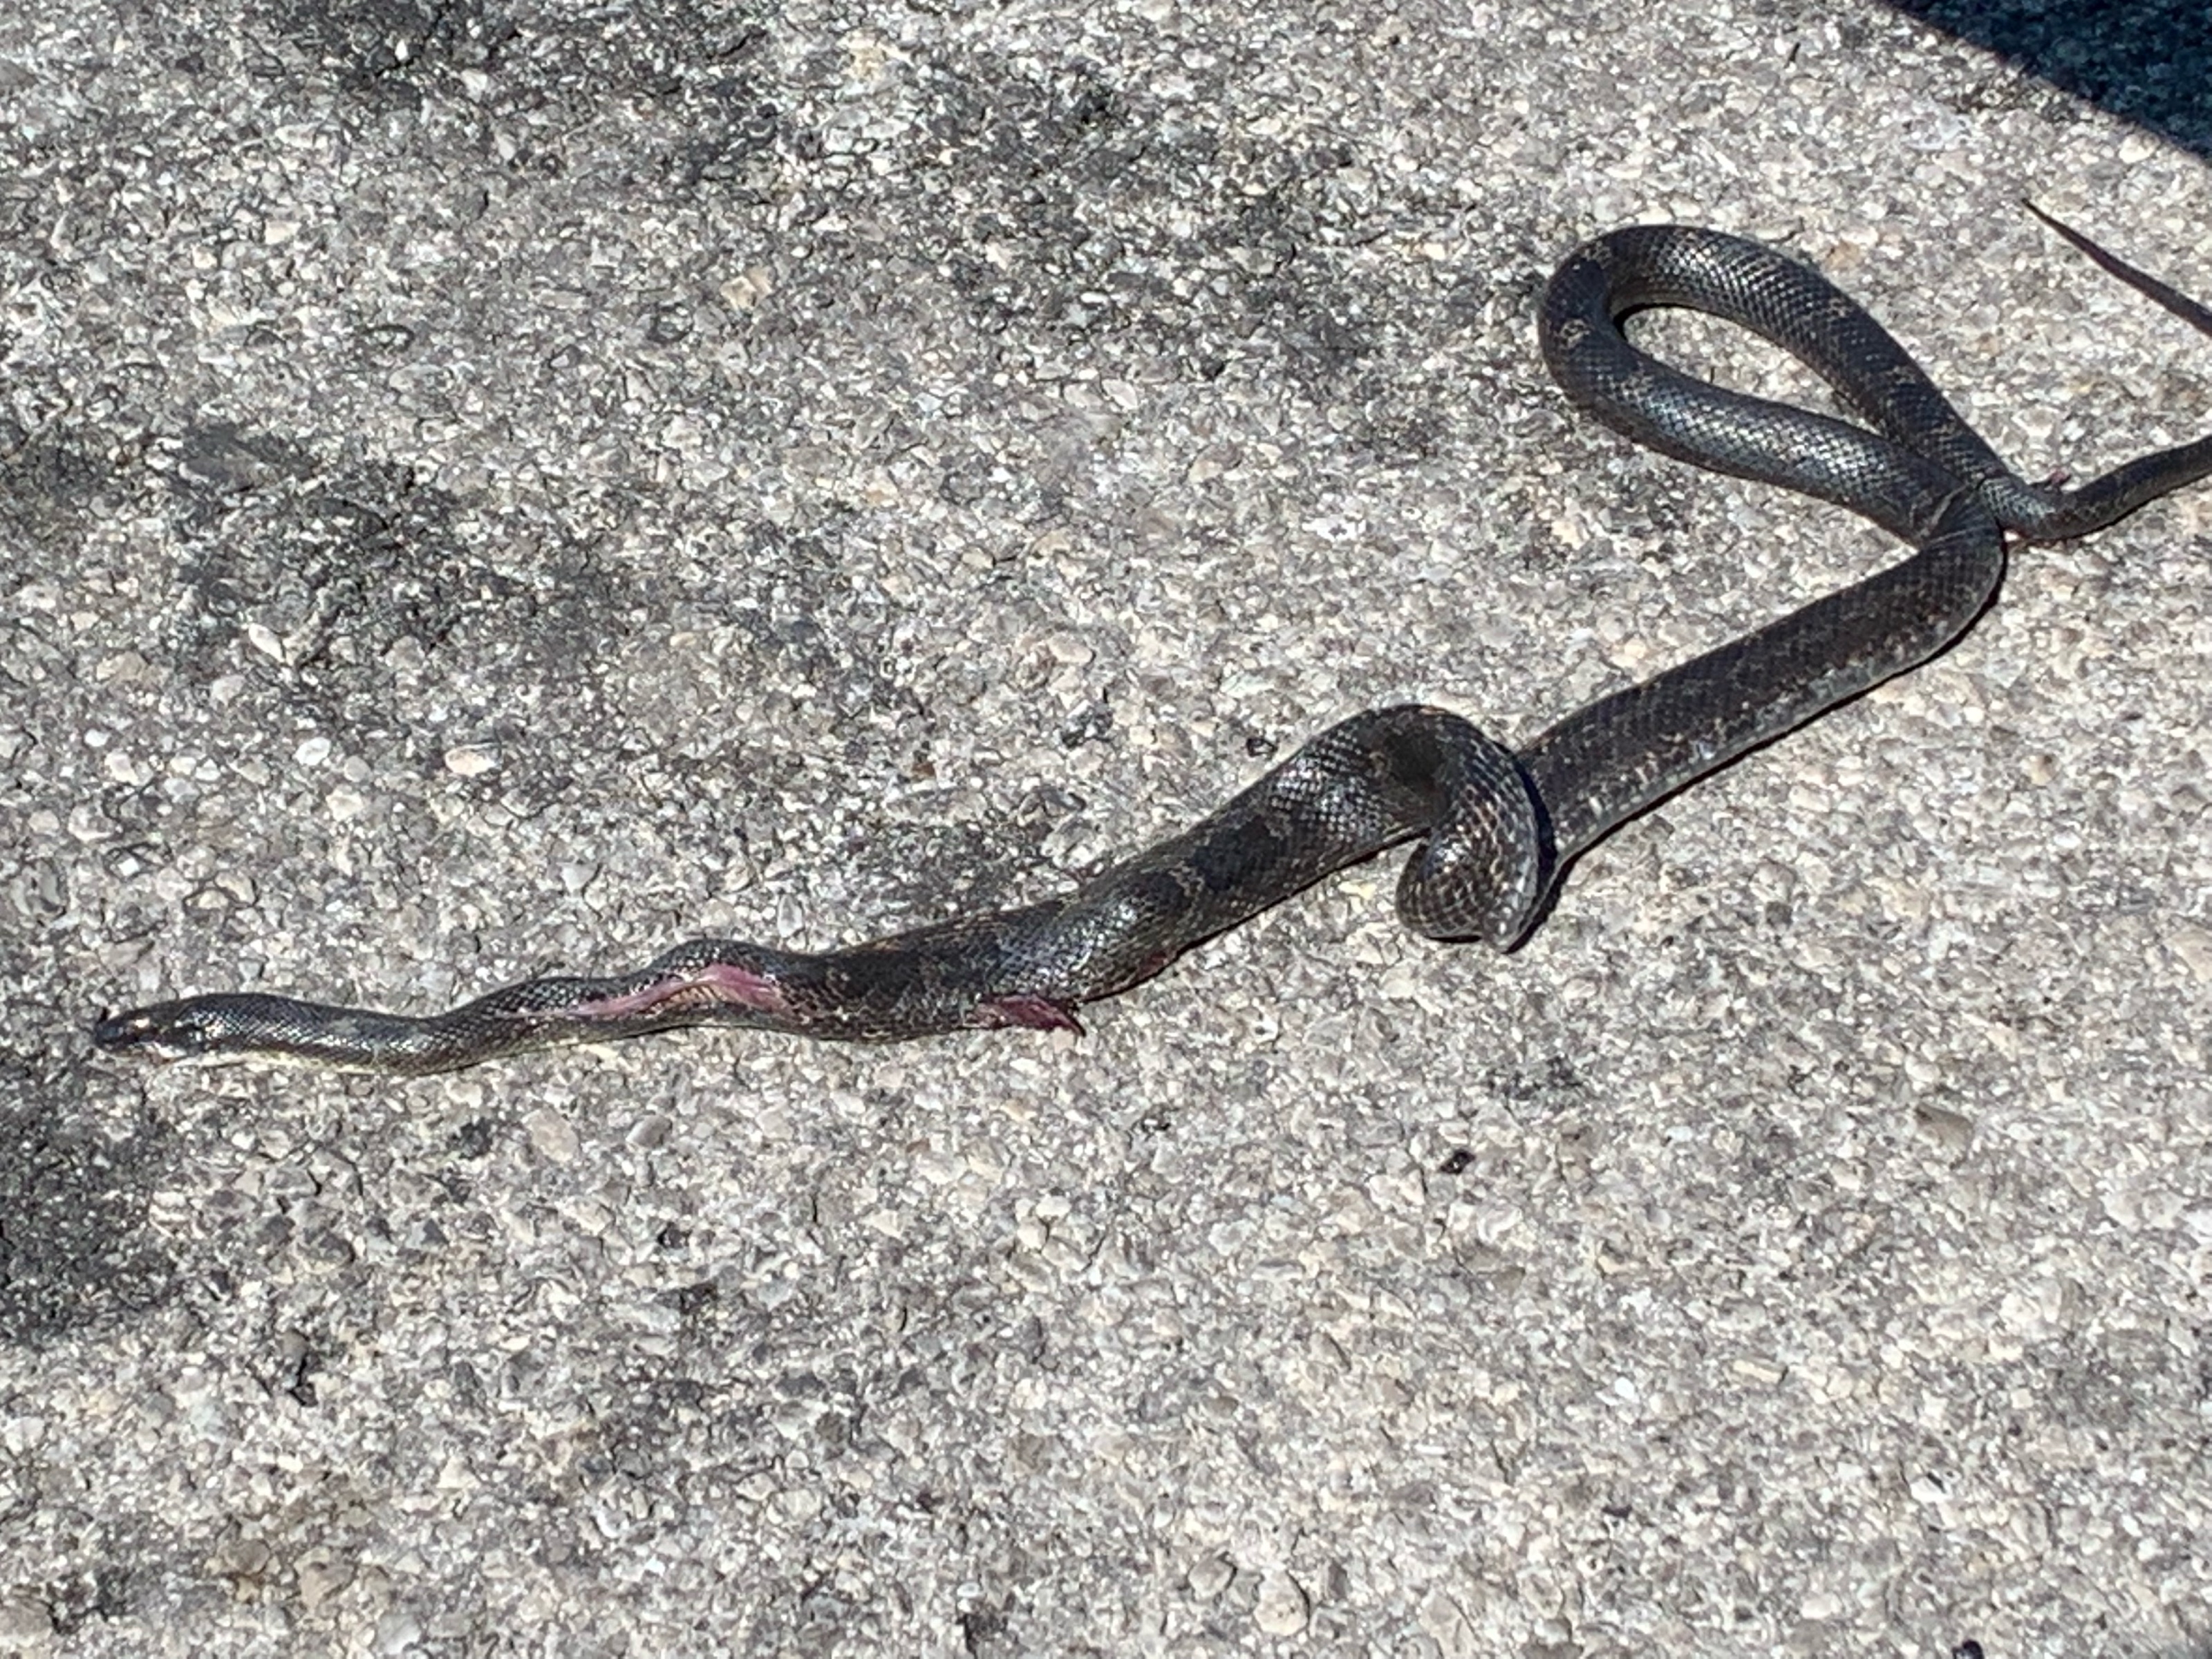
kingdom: Animalia
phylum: Chordata
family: Serpentes
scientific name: Serpentes
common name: snake
